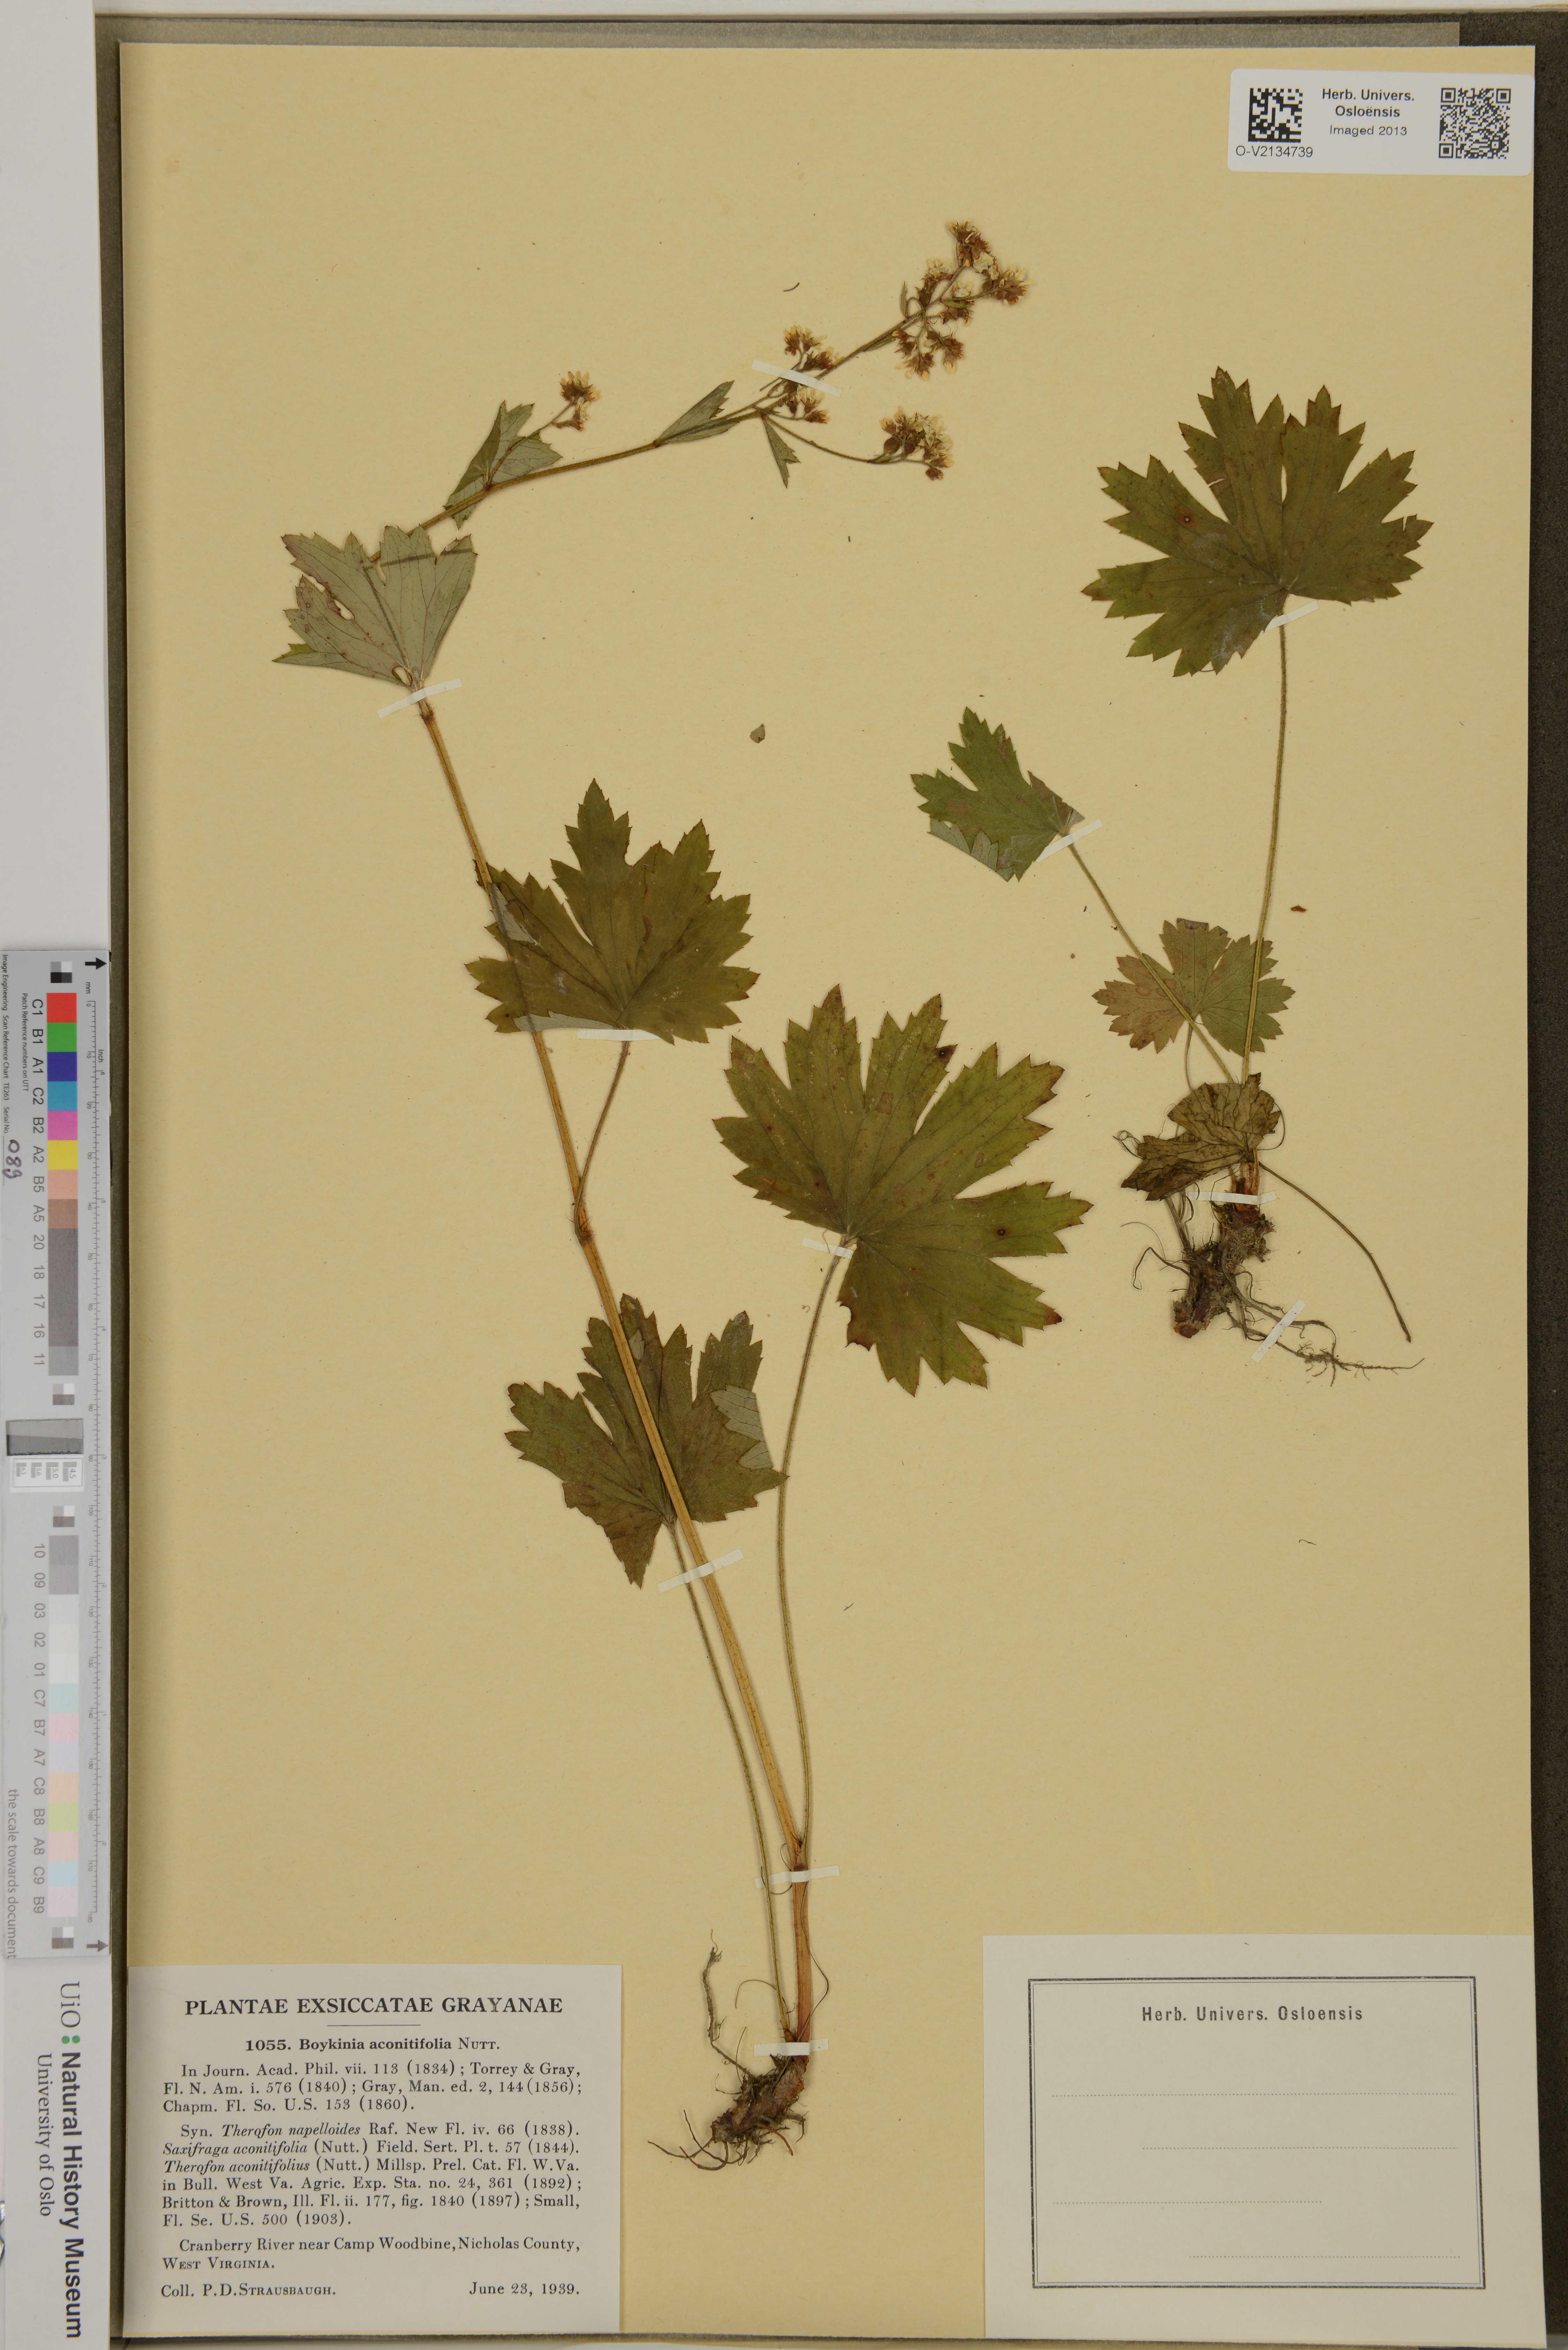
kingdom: Plantae
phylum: Tracheophyta
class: Magnoliopsida
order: Saxifragales
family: Saxifragaceae
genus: Boykinia
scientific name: Boykinia aconitifolia
